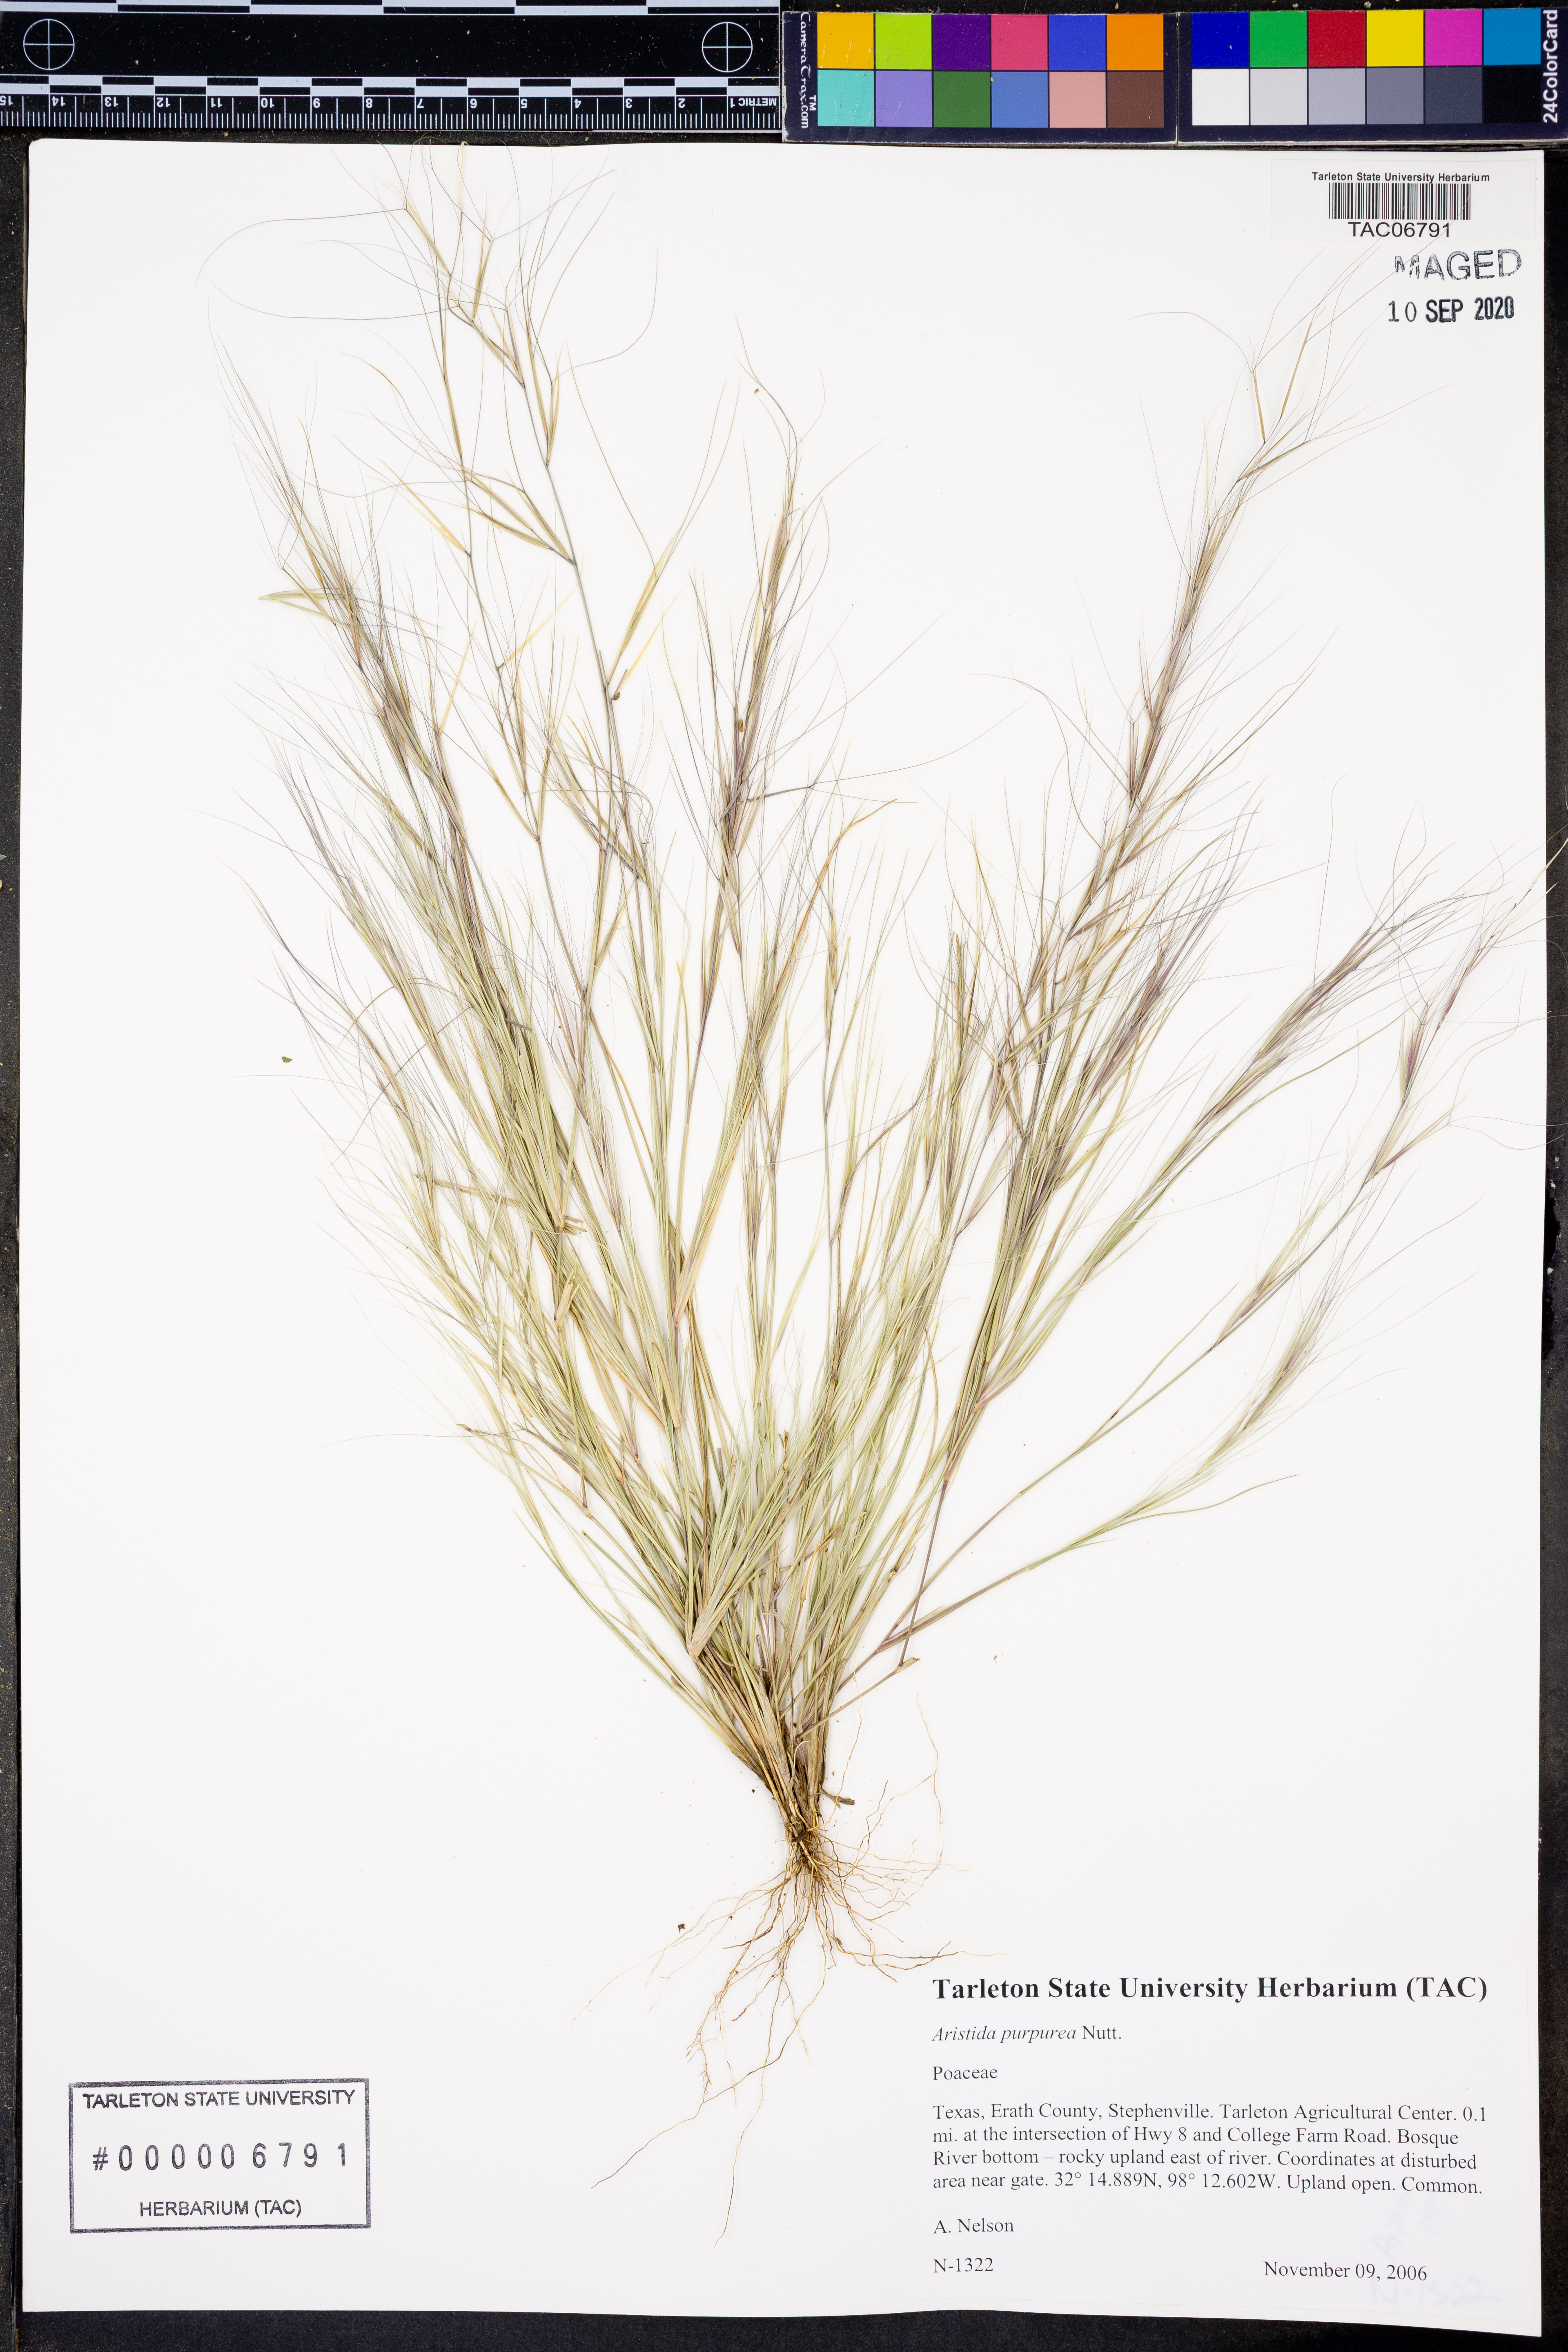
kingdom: Plantae
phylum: Tracheophyta
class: Liliopsida
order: Poales
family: Poaceae
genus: Aristida
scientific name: Aristida purpurea
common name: Purple threeawn
